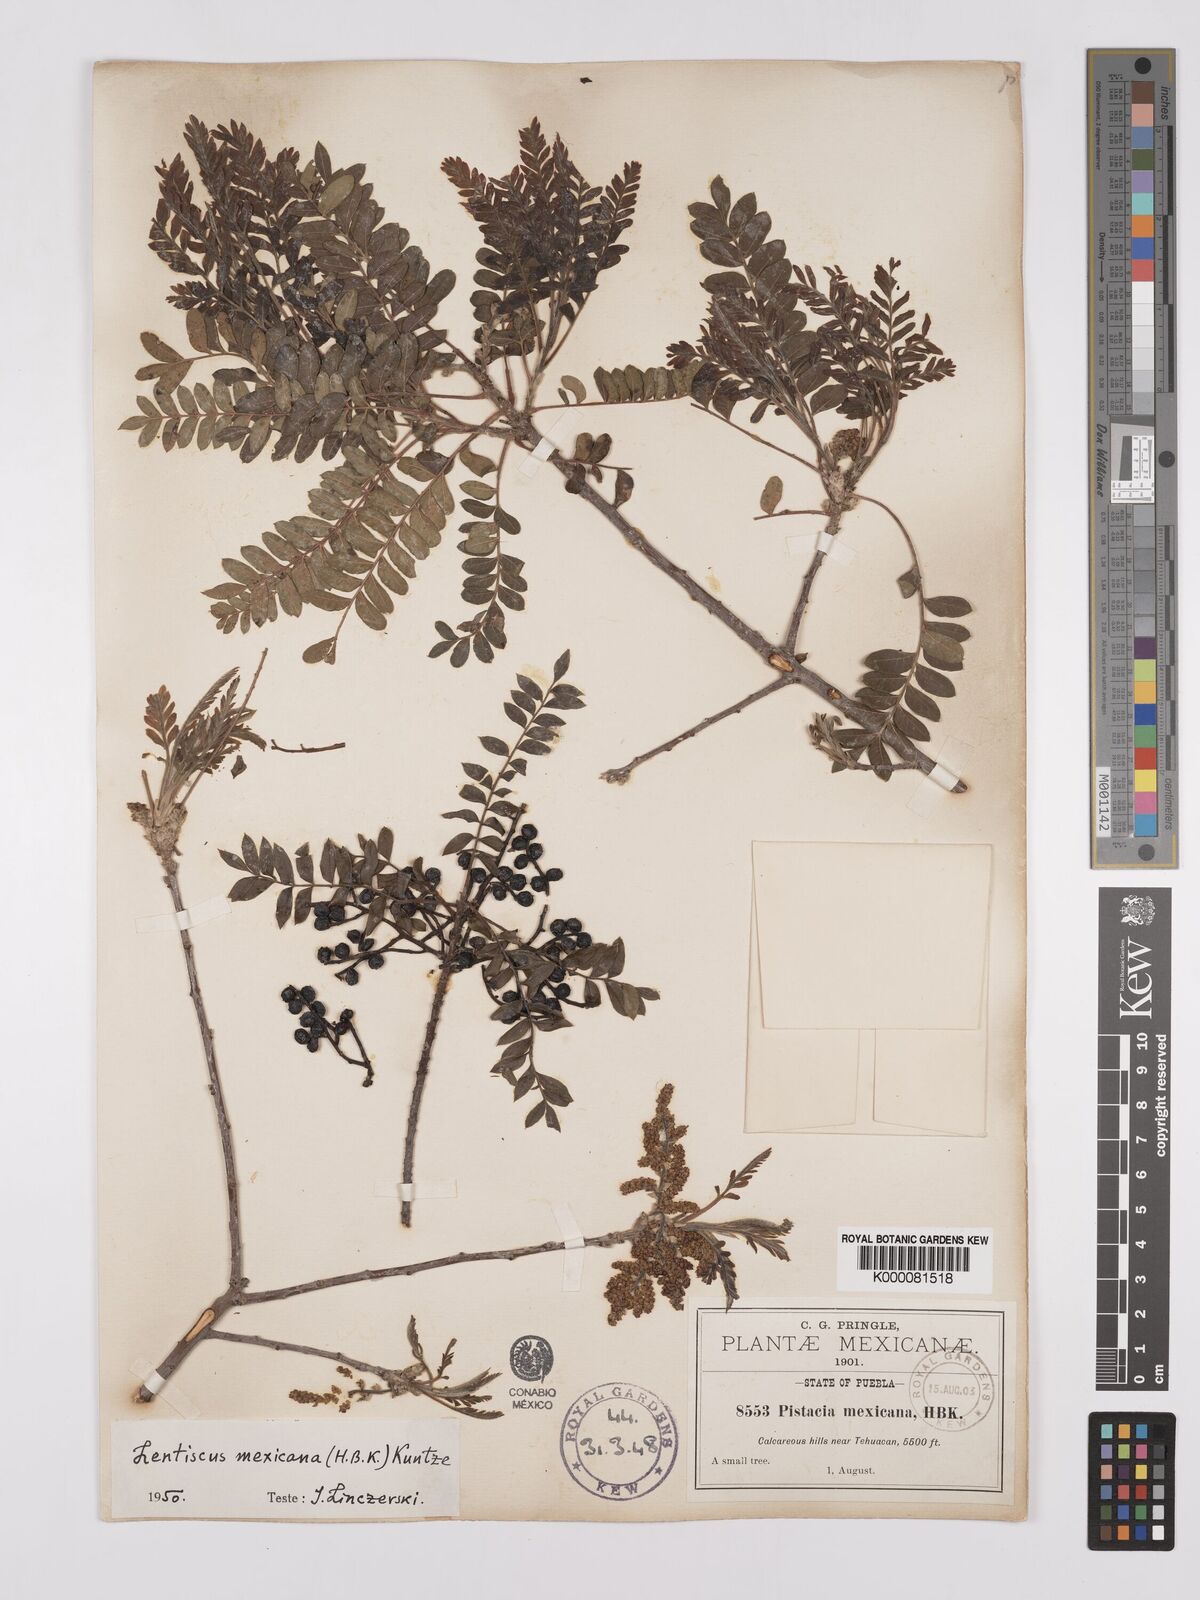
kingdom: Plantae
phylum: Tracheophyta
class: Magnoliopsida
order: Sapindales
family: Anacardiaceae
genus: Pistacia
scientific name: Pistacia mexicana
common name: Mexican pistachio
